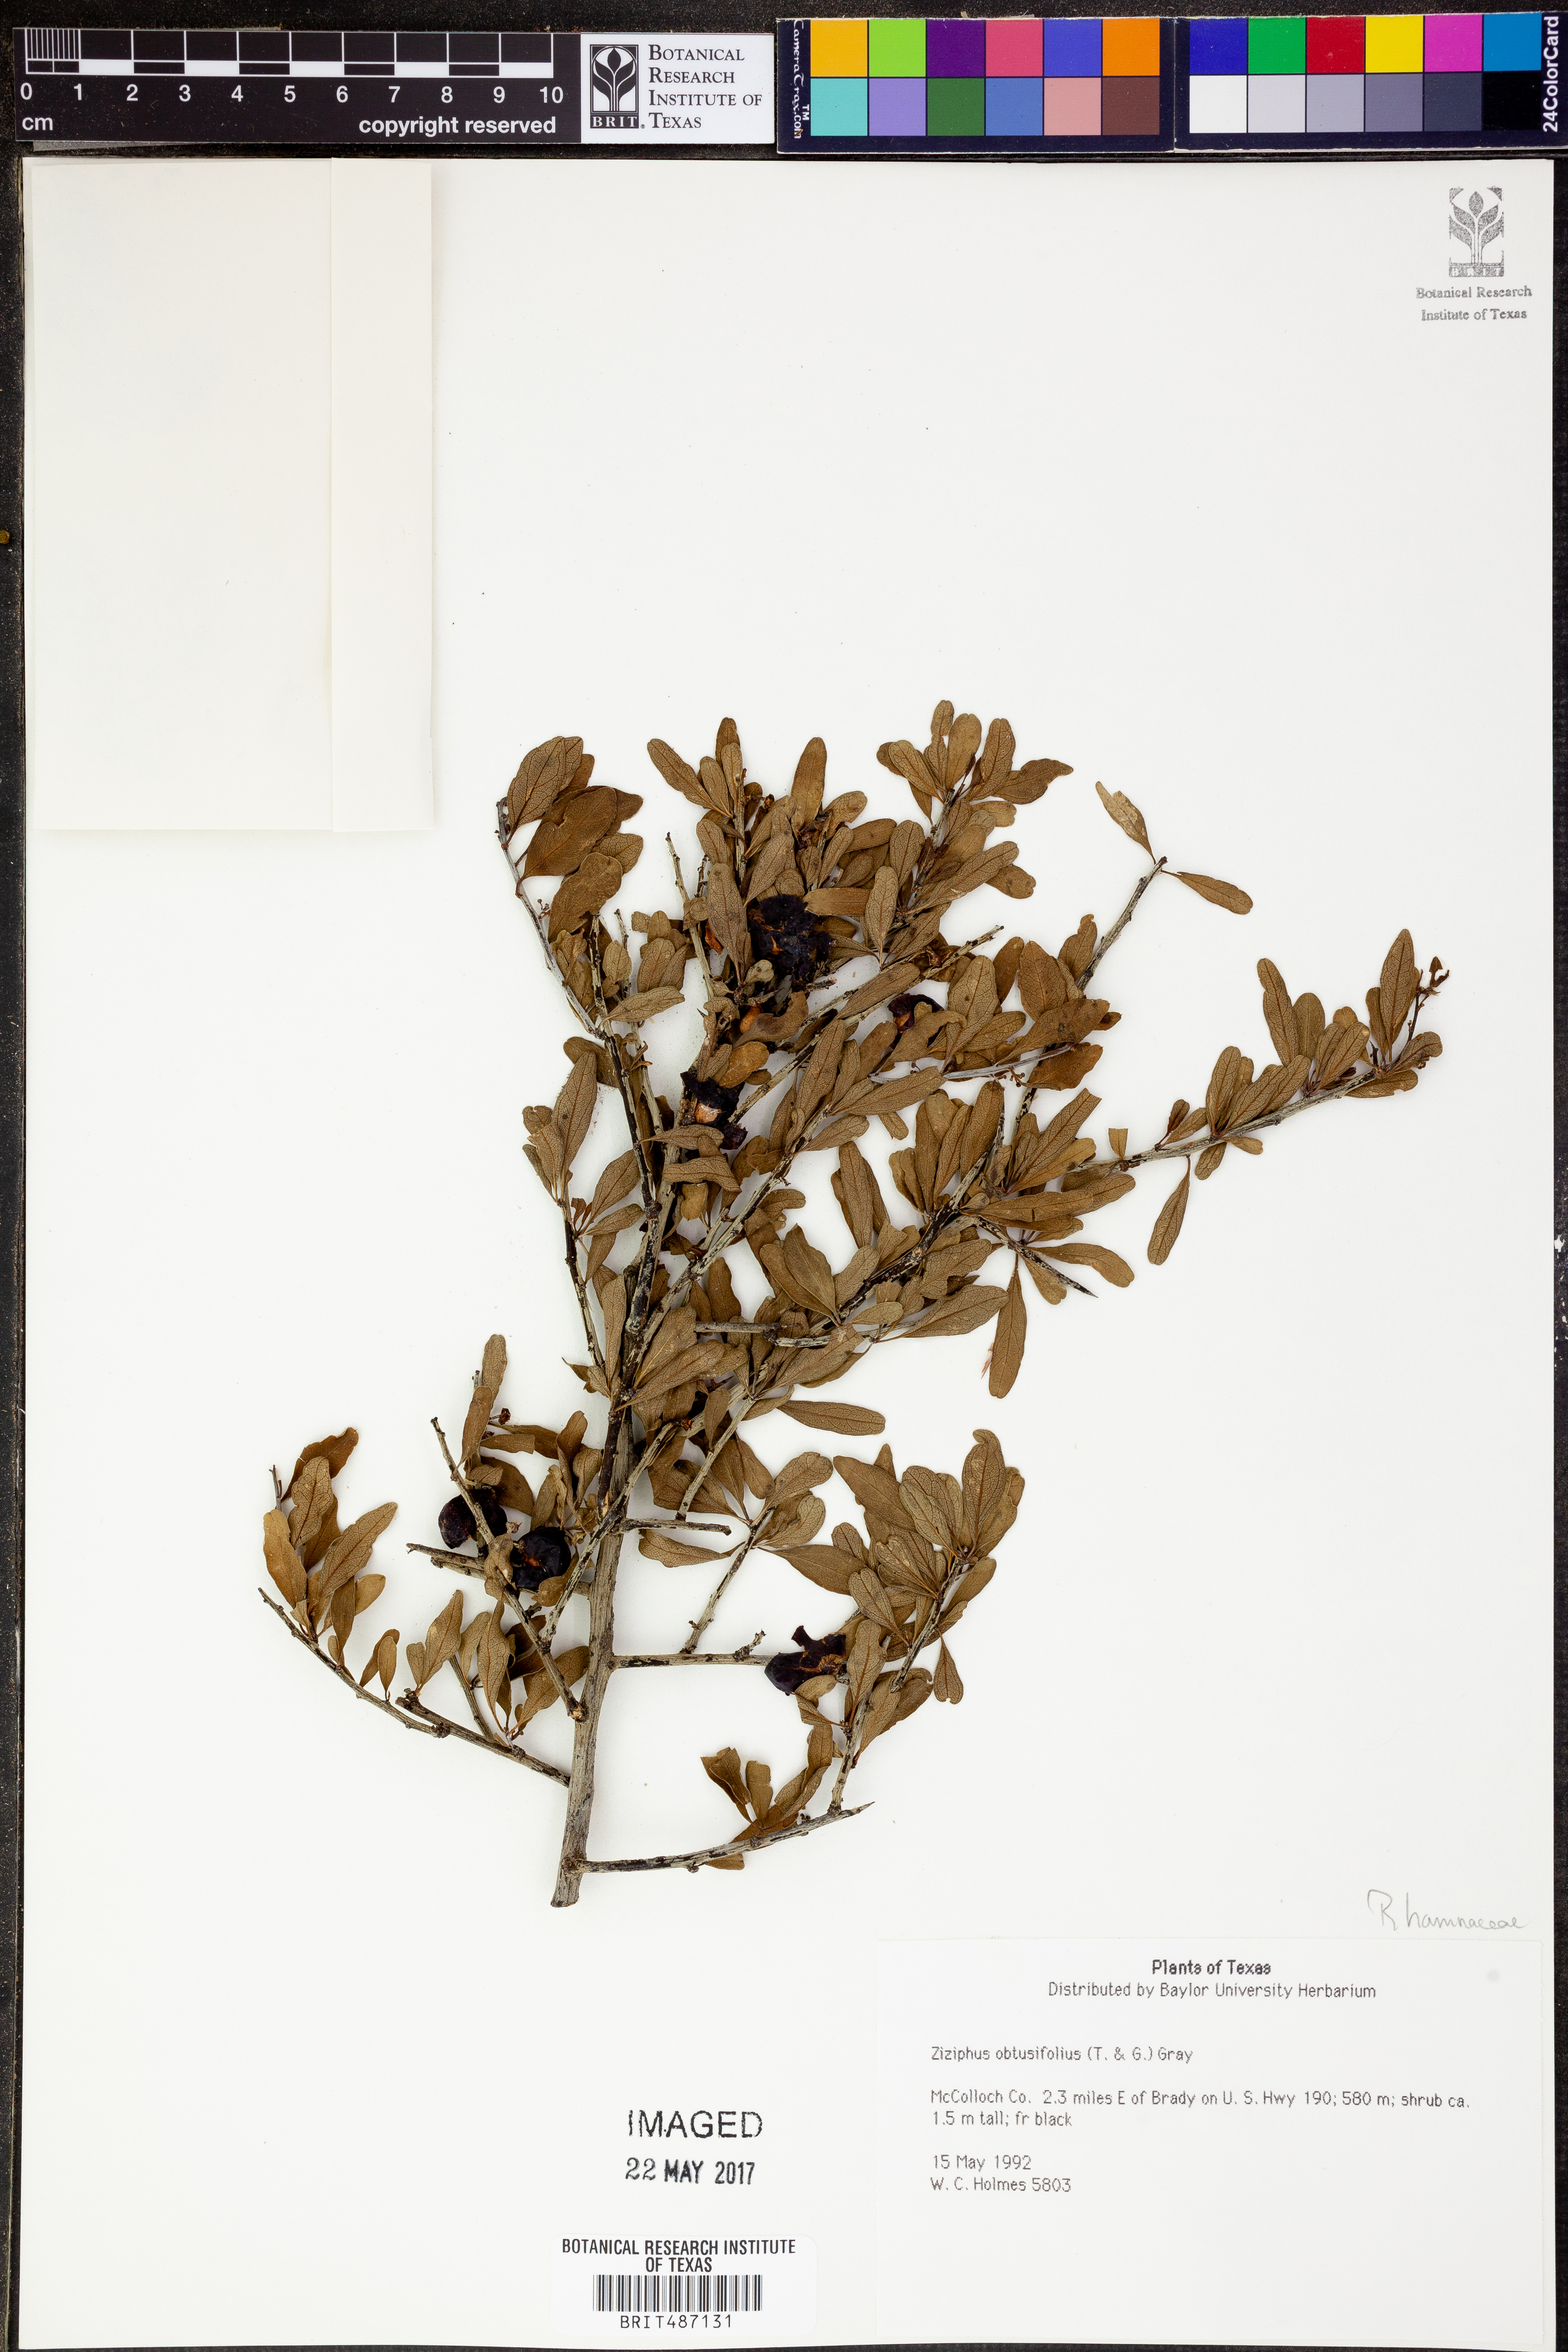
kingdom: Plantae
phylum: Tracheophyta
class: Magnoliopsida
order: Rosales
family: Rhamnaceae
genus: Sarcomphalus
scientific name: Sarcomphalus obtusifolius
